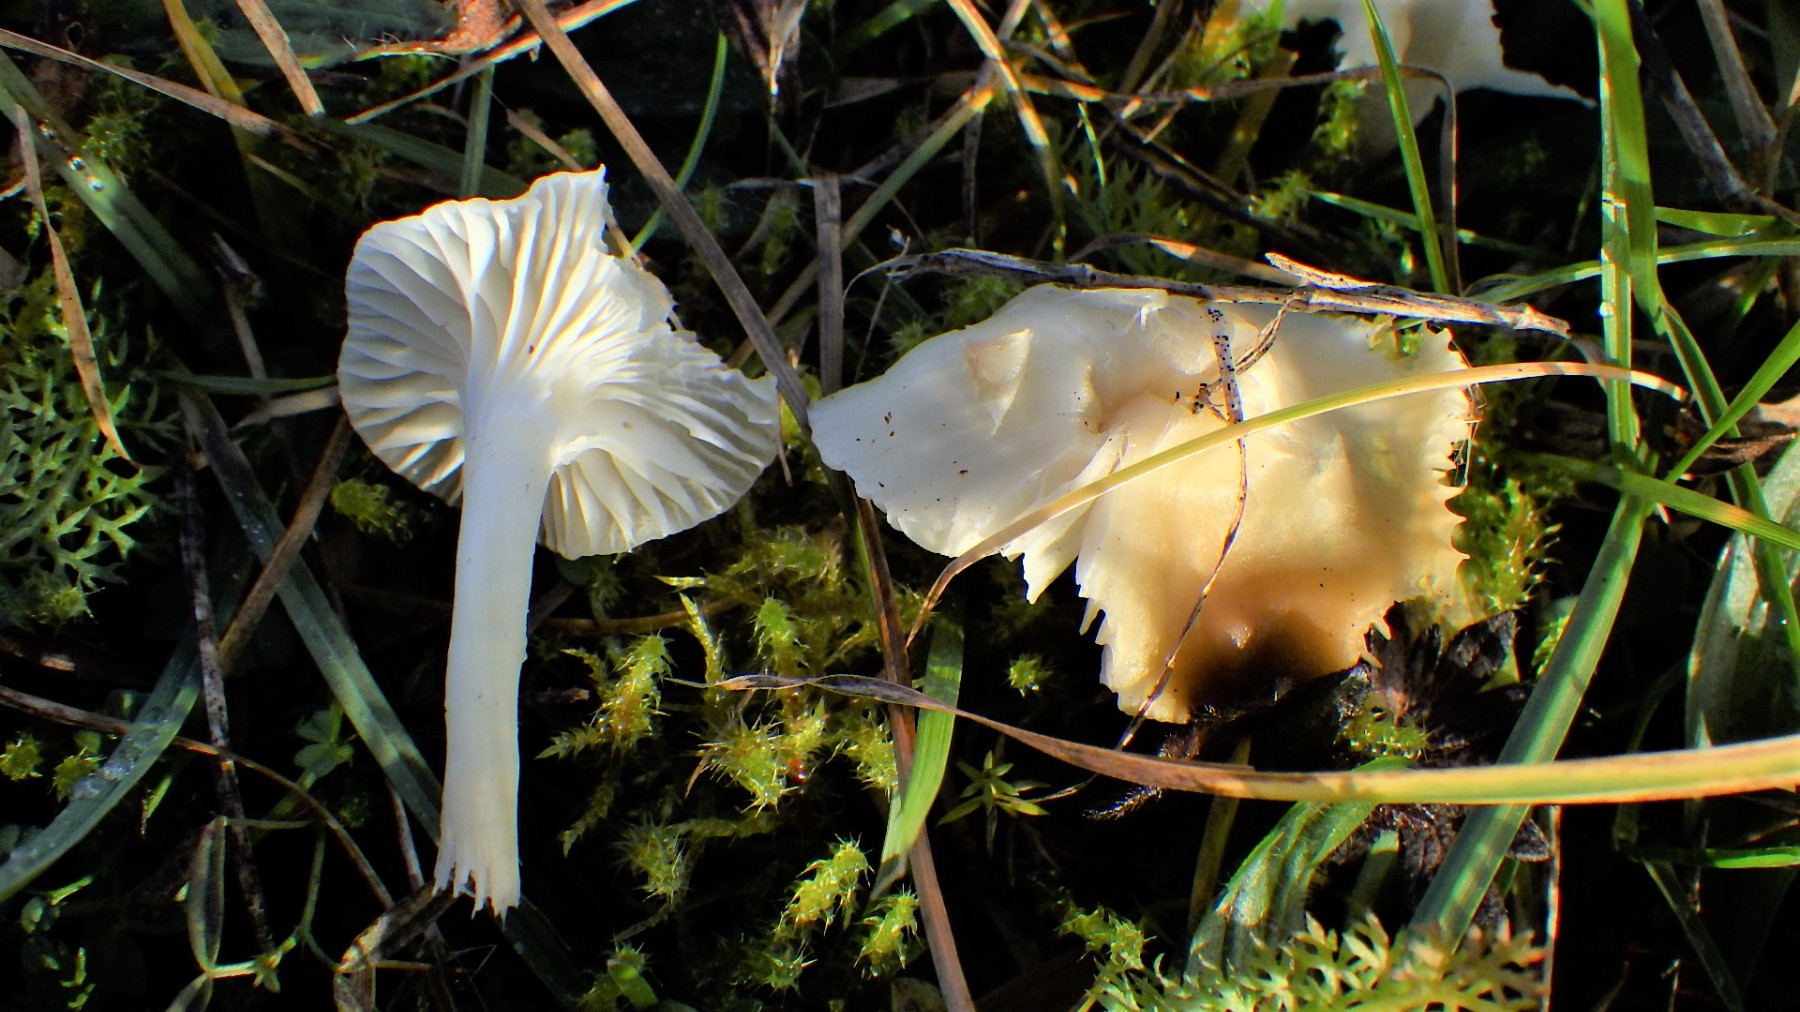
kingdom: Fungi
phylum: Basidiomycota
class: Agaricomycetes
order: Agaricales
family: Hygrophoraceae
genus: Cuphophyllus
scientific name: Cuphophyllus
